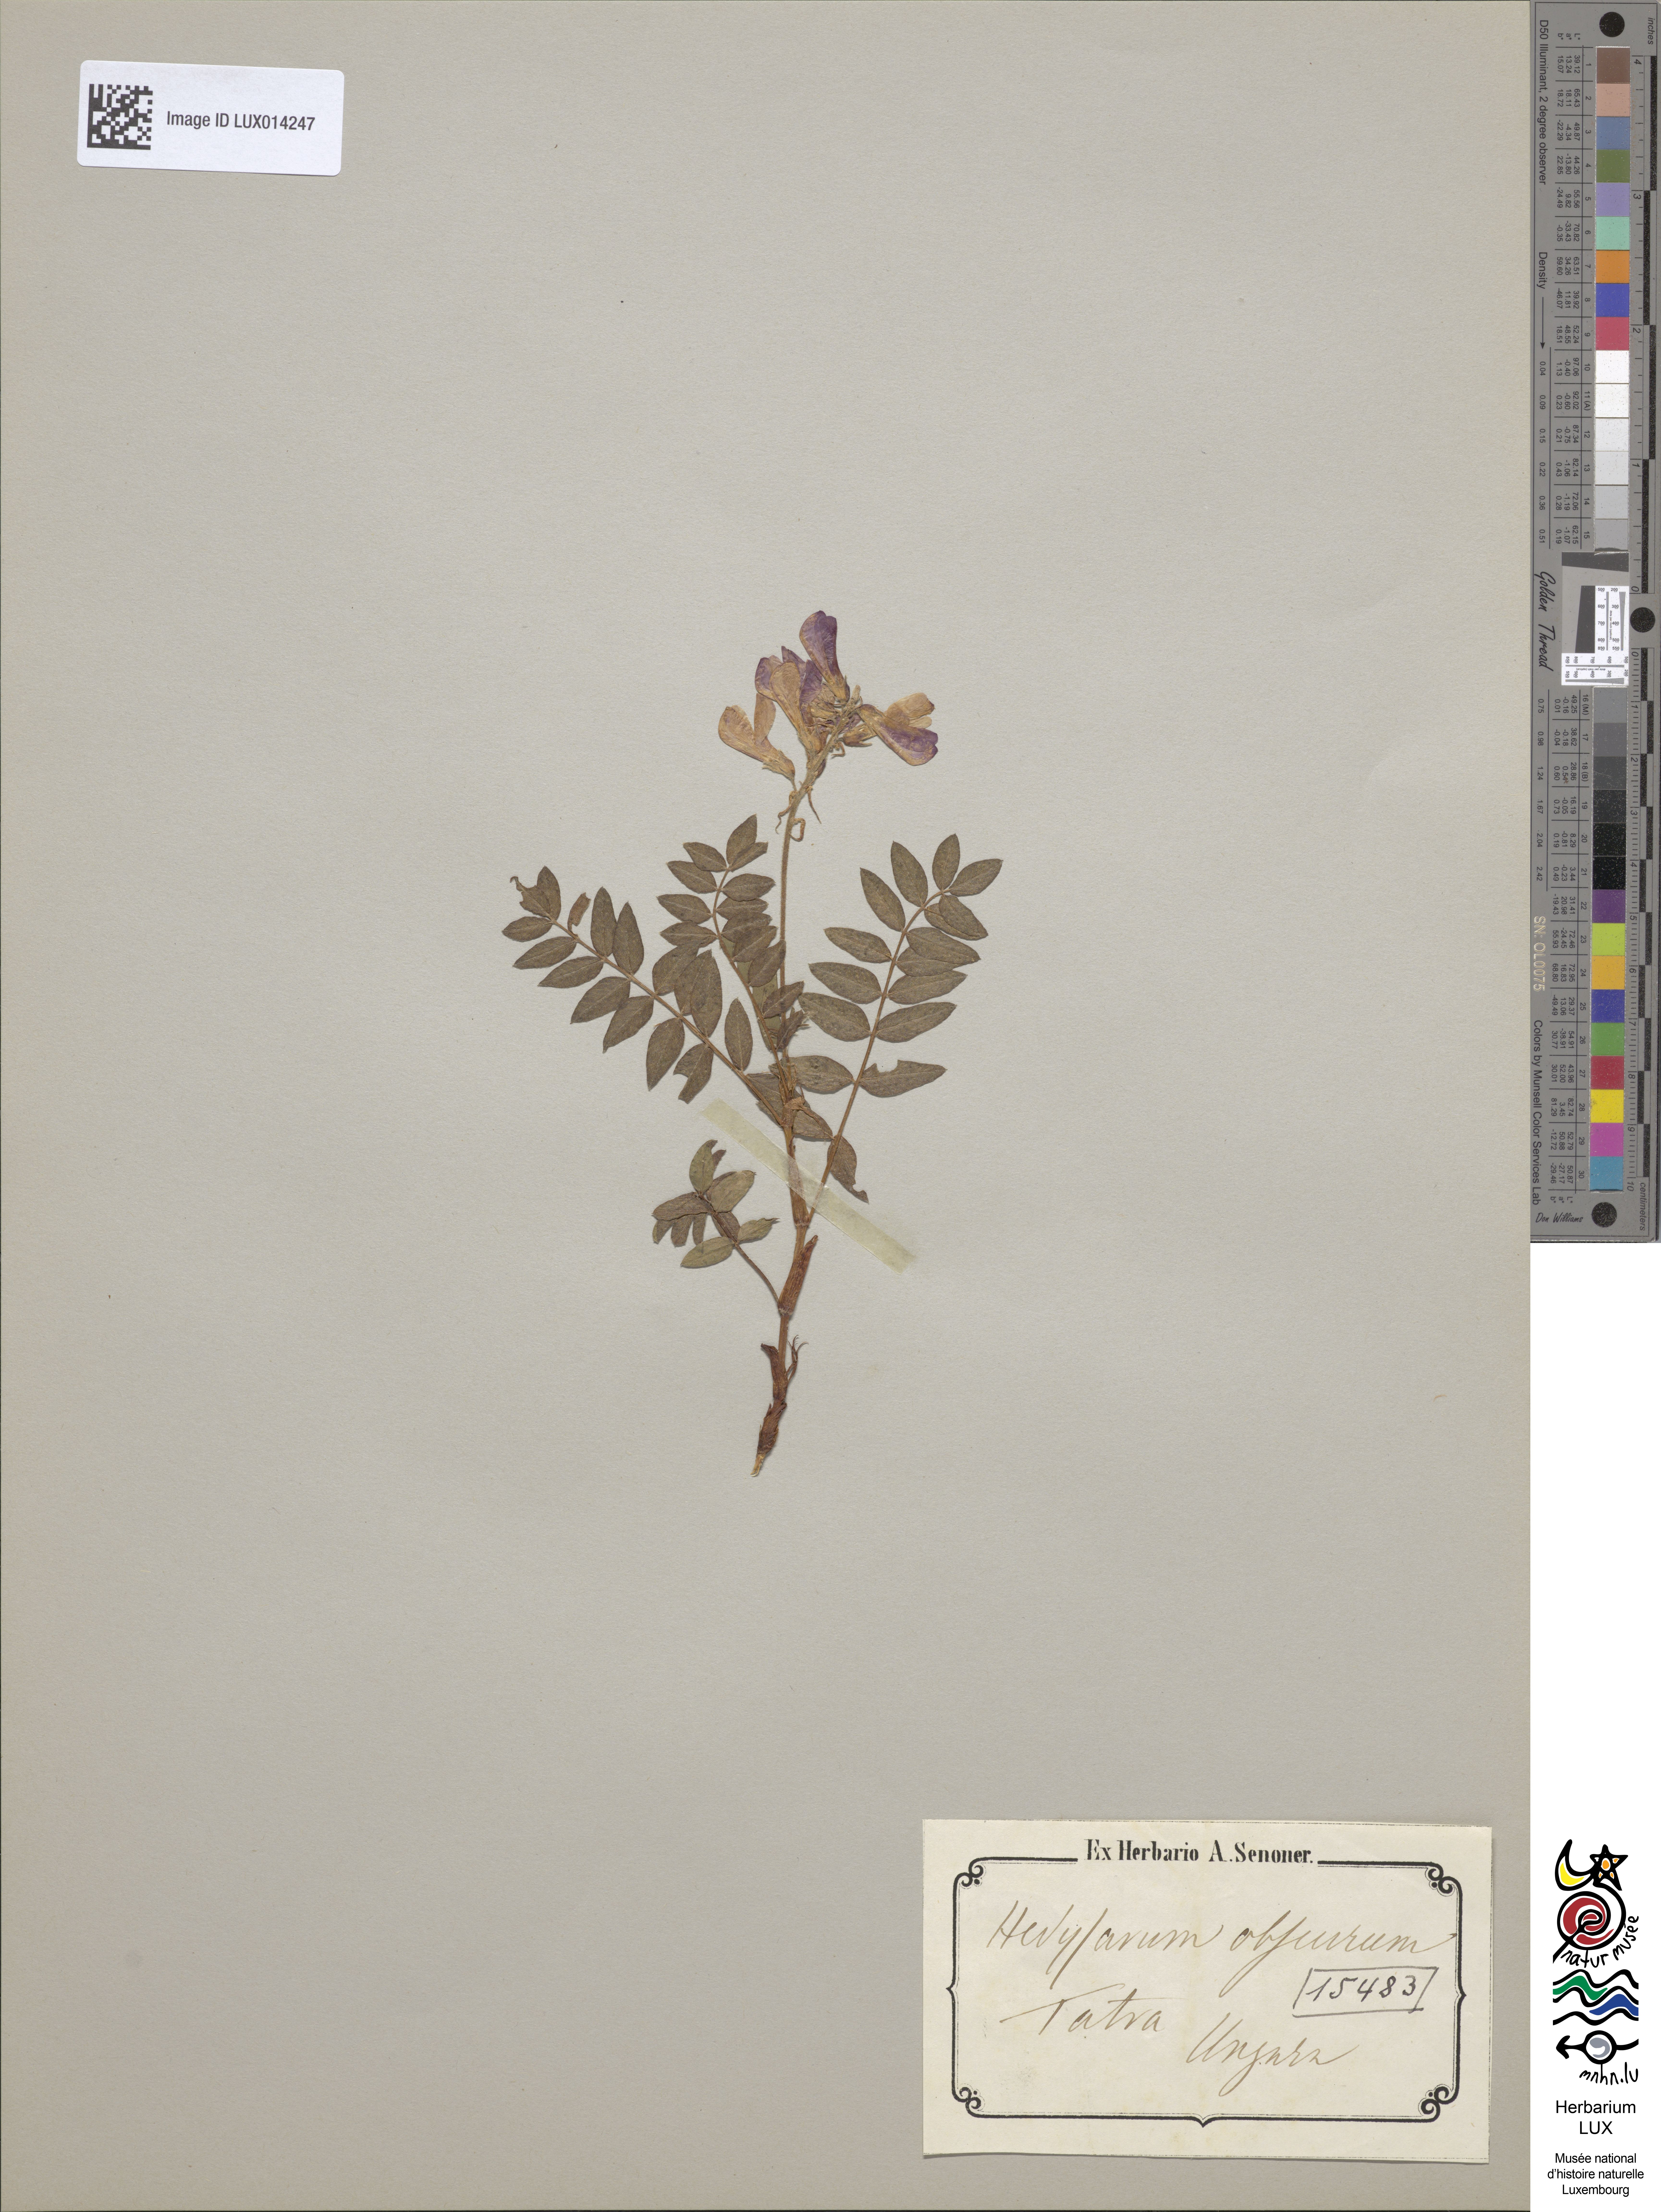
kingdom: Plantae
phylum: Tracheophyta
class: Magnoliopsida
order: Fabales
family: Fabaceae
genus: Hedysarum
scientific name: Hedysarum hedysaroides
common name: Alpine french-honeysuckle
